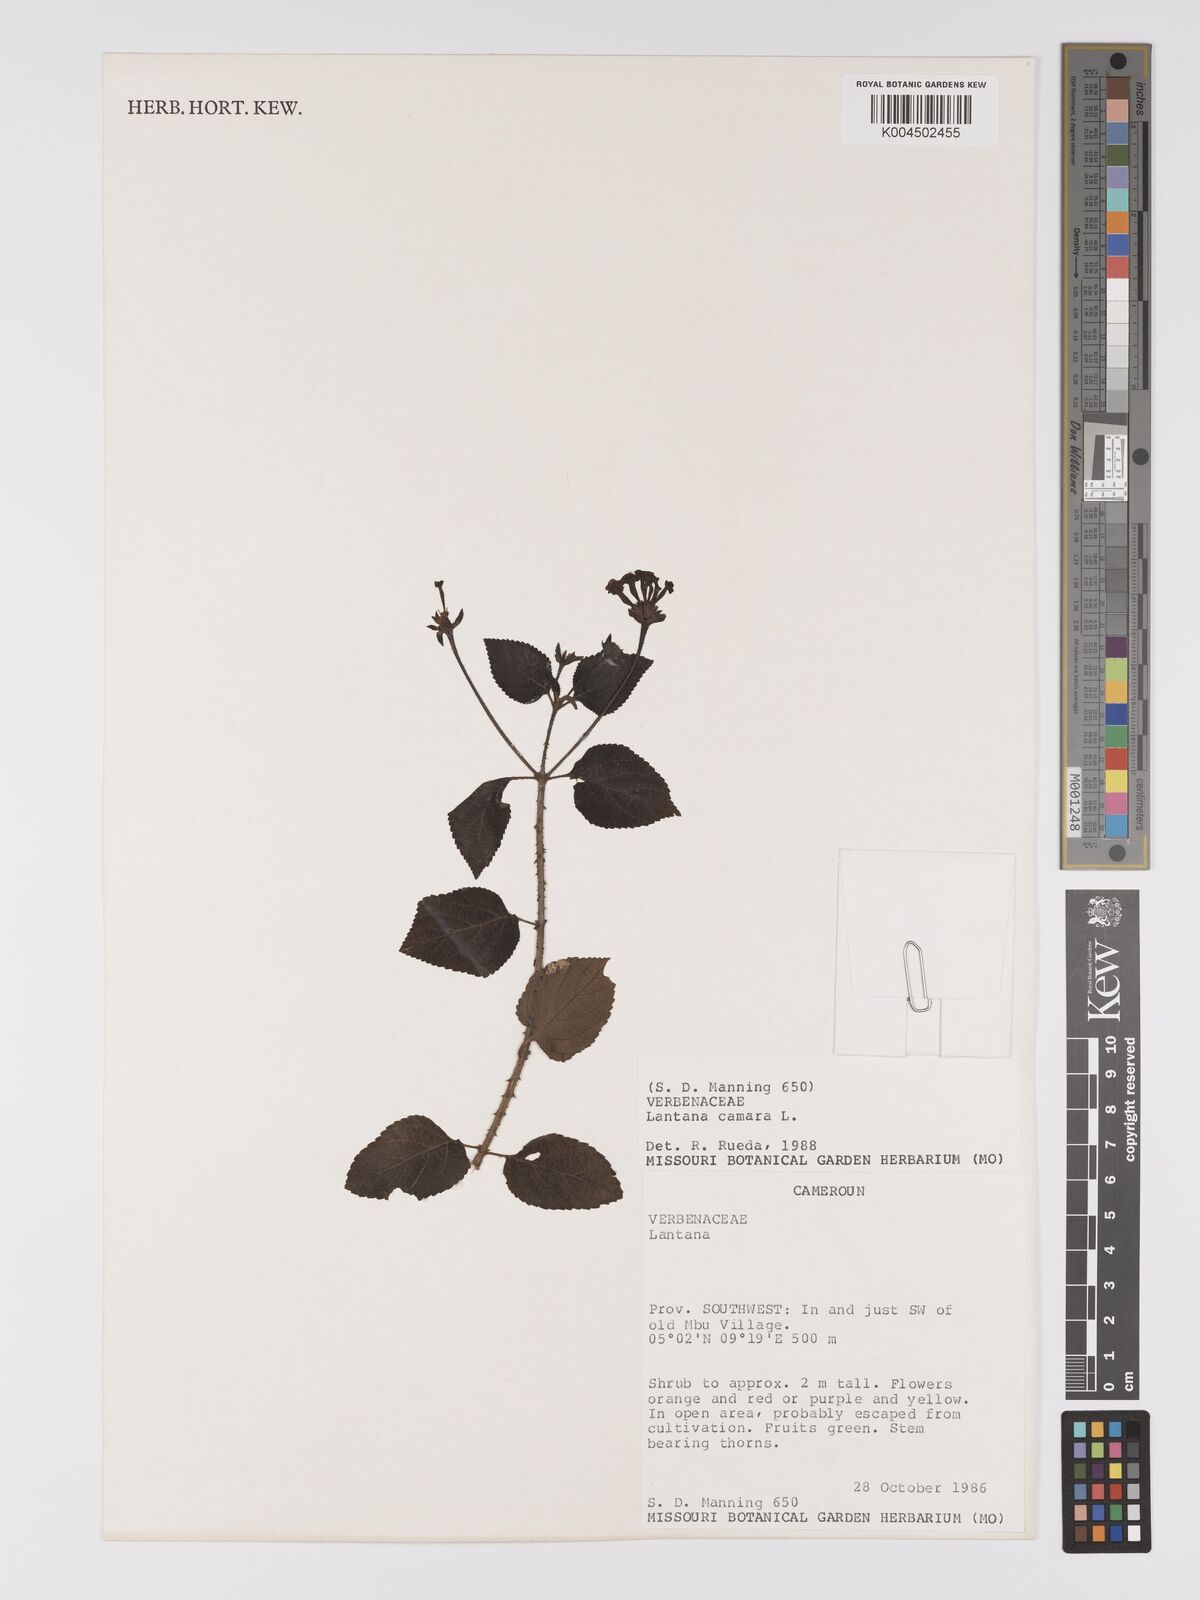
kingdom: Plantae
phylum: Tracheophyta
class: Magnoliopsida
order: Lamiales
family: Verbenaceae
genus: Lantana
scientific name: Lantana camara
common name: Lantana
